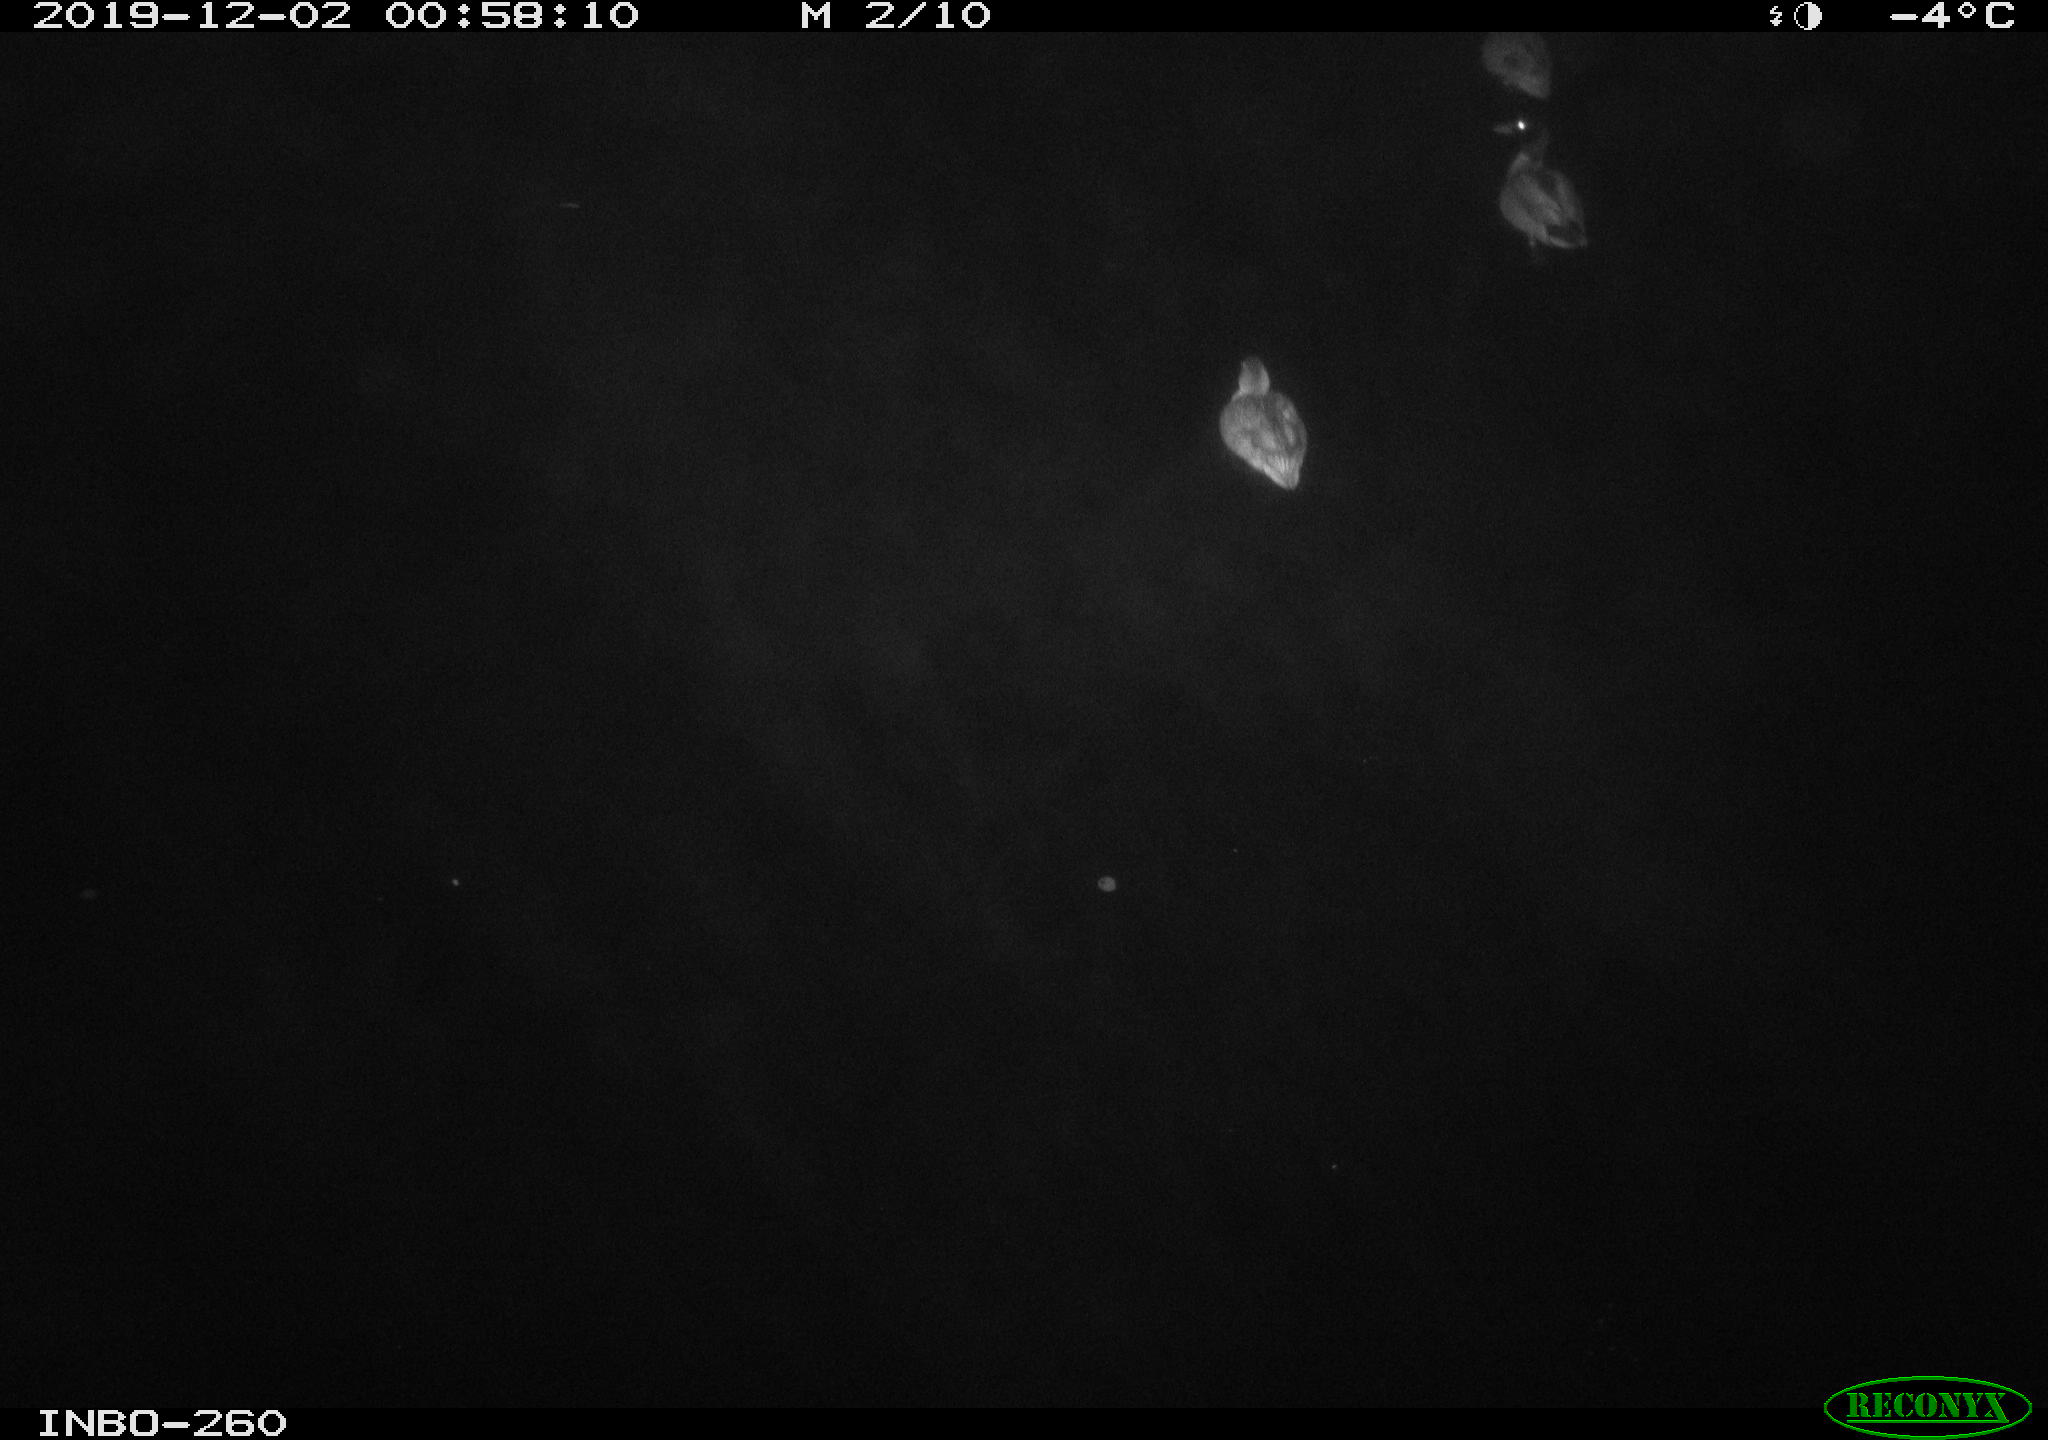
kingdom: Animalia
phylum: Chordata
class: Aves
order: Anseriformes
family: Anatidae
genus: Anas
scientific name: Anas platyrhynchos
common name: Mallard
